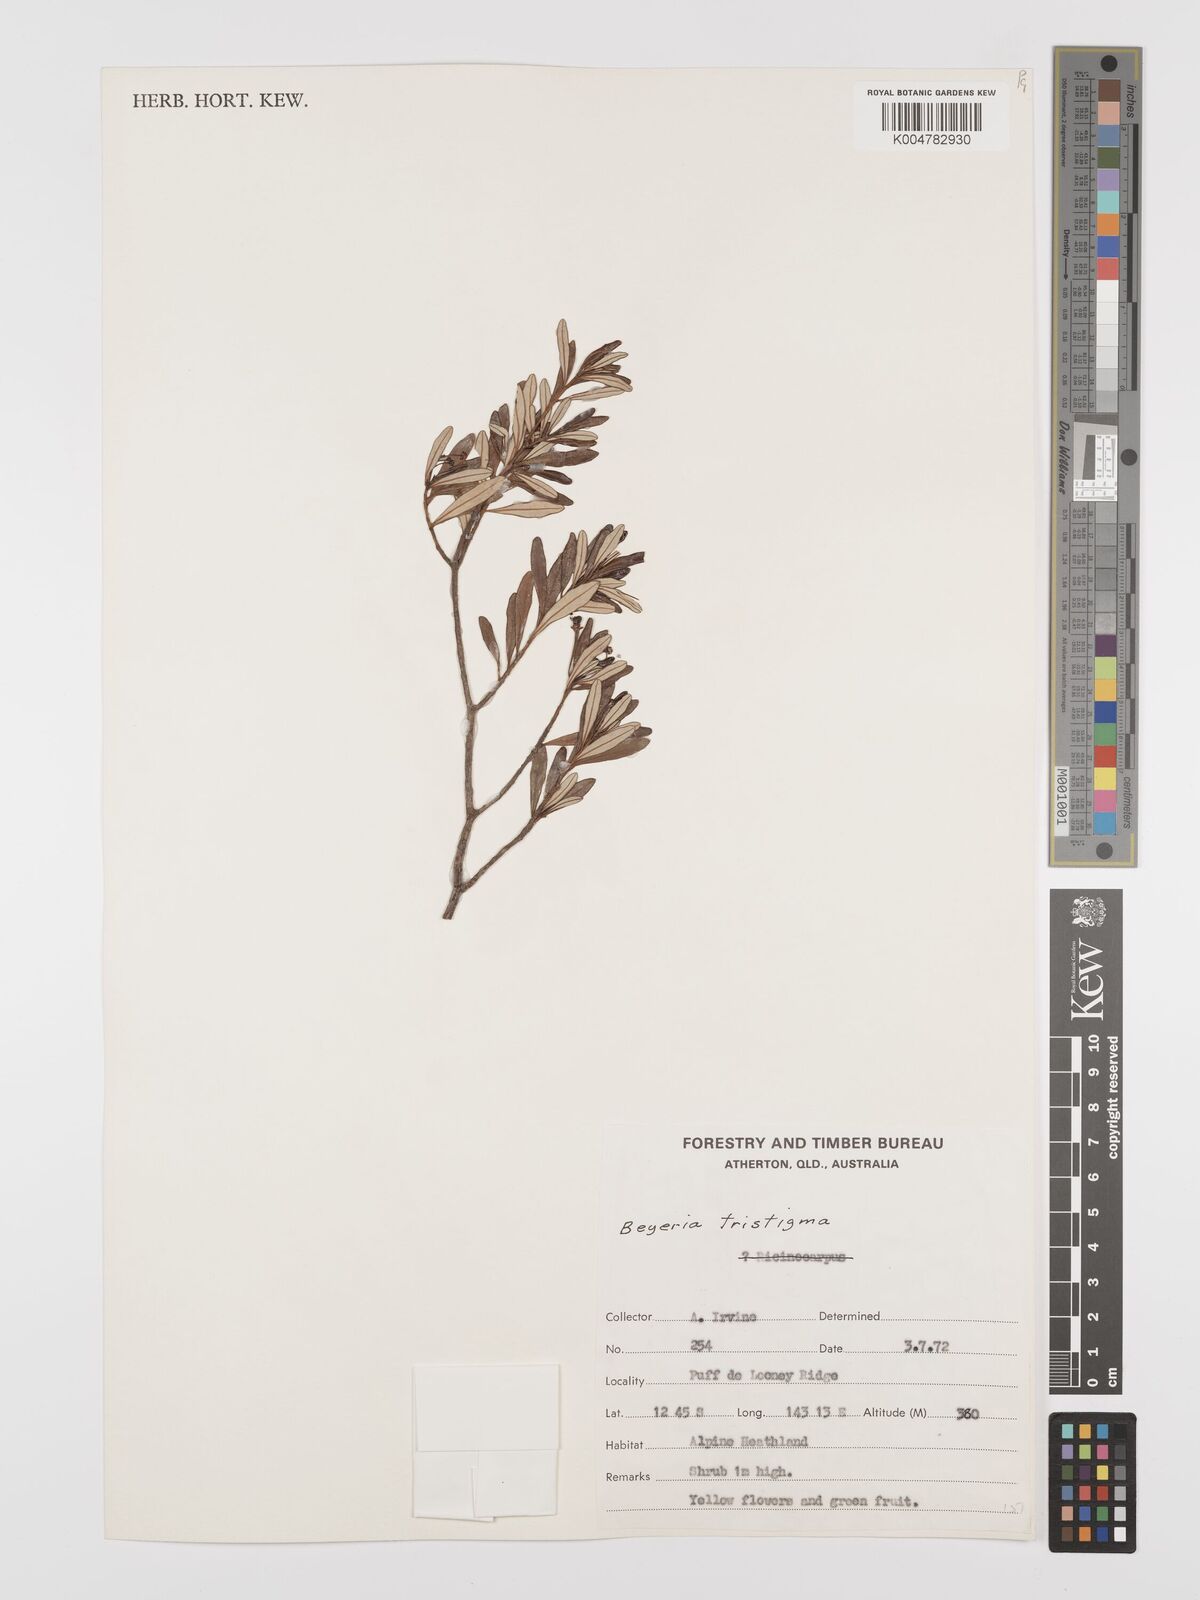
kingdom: Plantae
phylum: Tracheophyta
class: Magnoliopsida
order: Malpighiales
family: Euphorbiaceae
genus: Shonia
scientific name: Shonia tristigma
